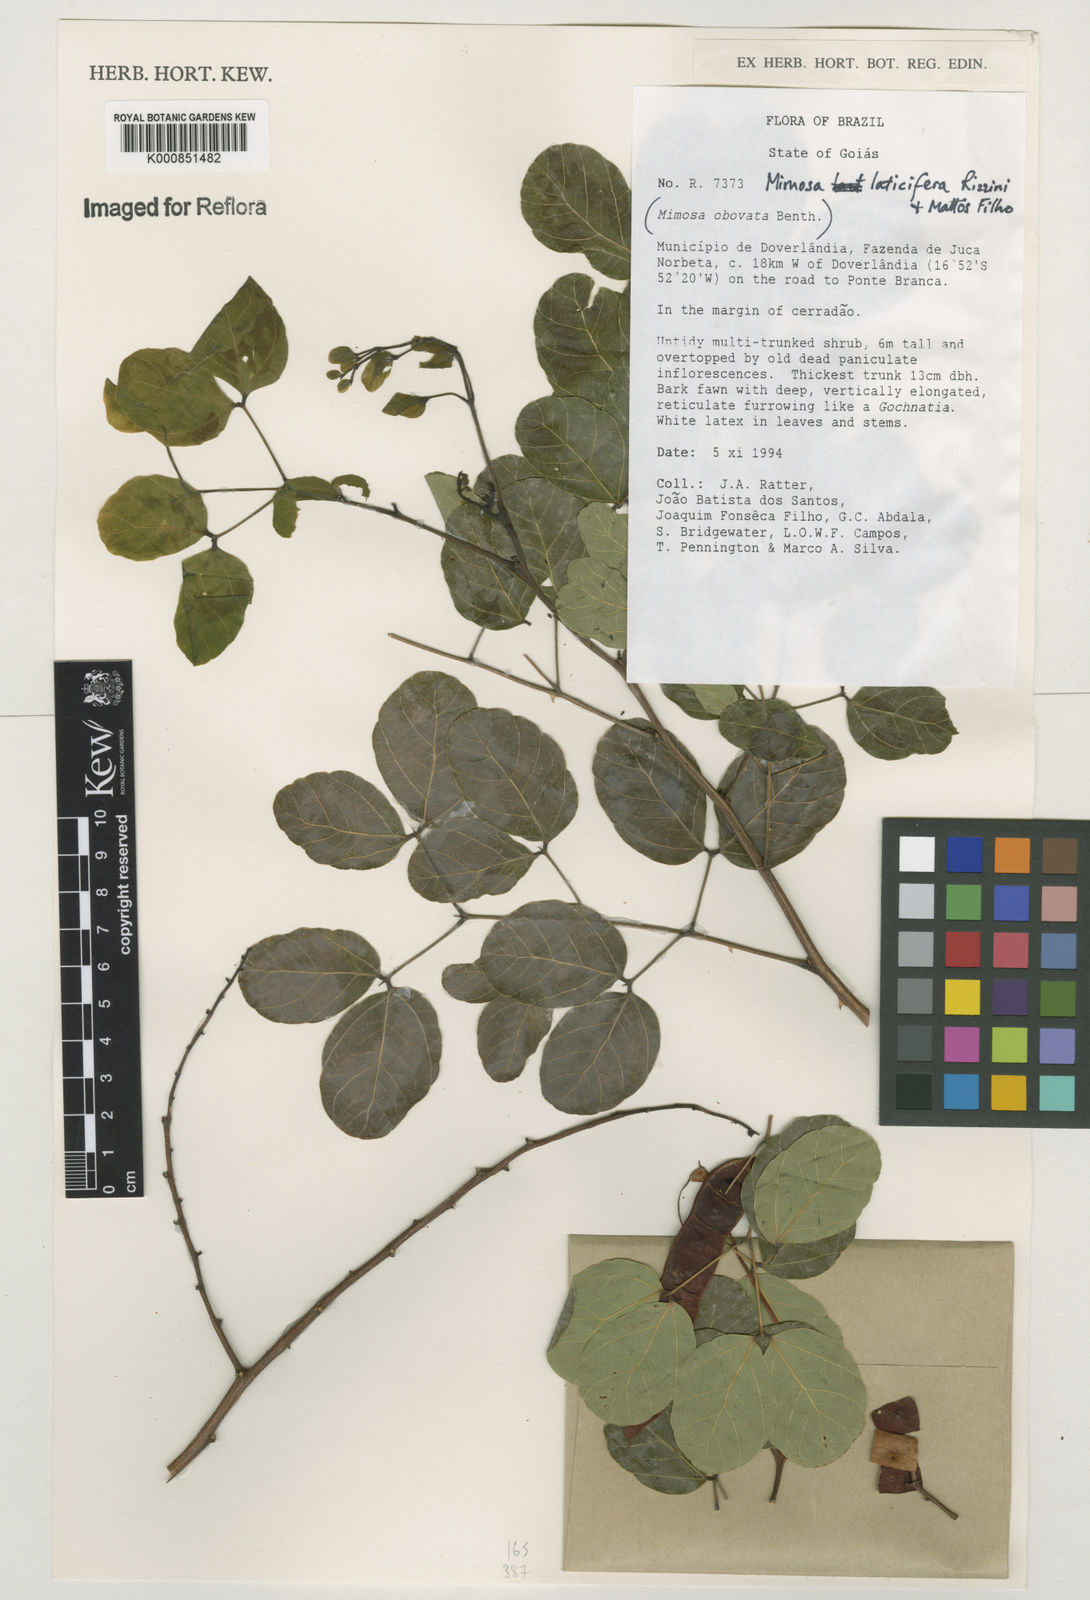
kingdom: Plantae
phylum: Tracheophyta
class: Magnoliopsida
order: Fabales
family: Fabaceae
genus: Mimosa
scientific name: Mimosa laticifera
